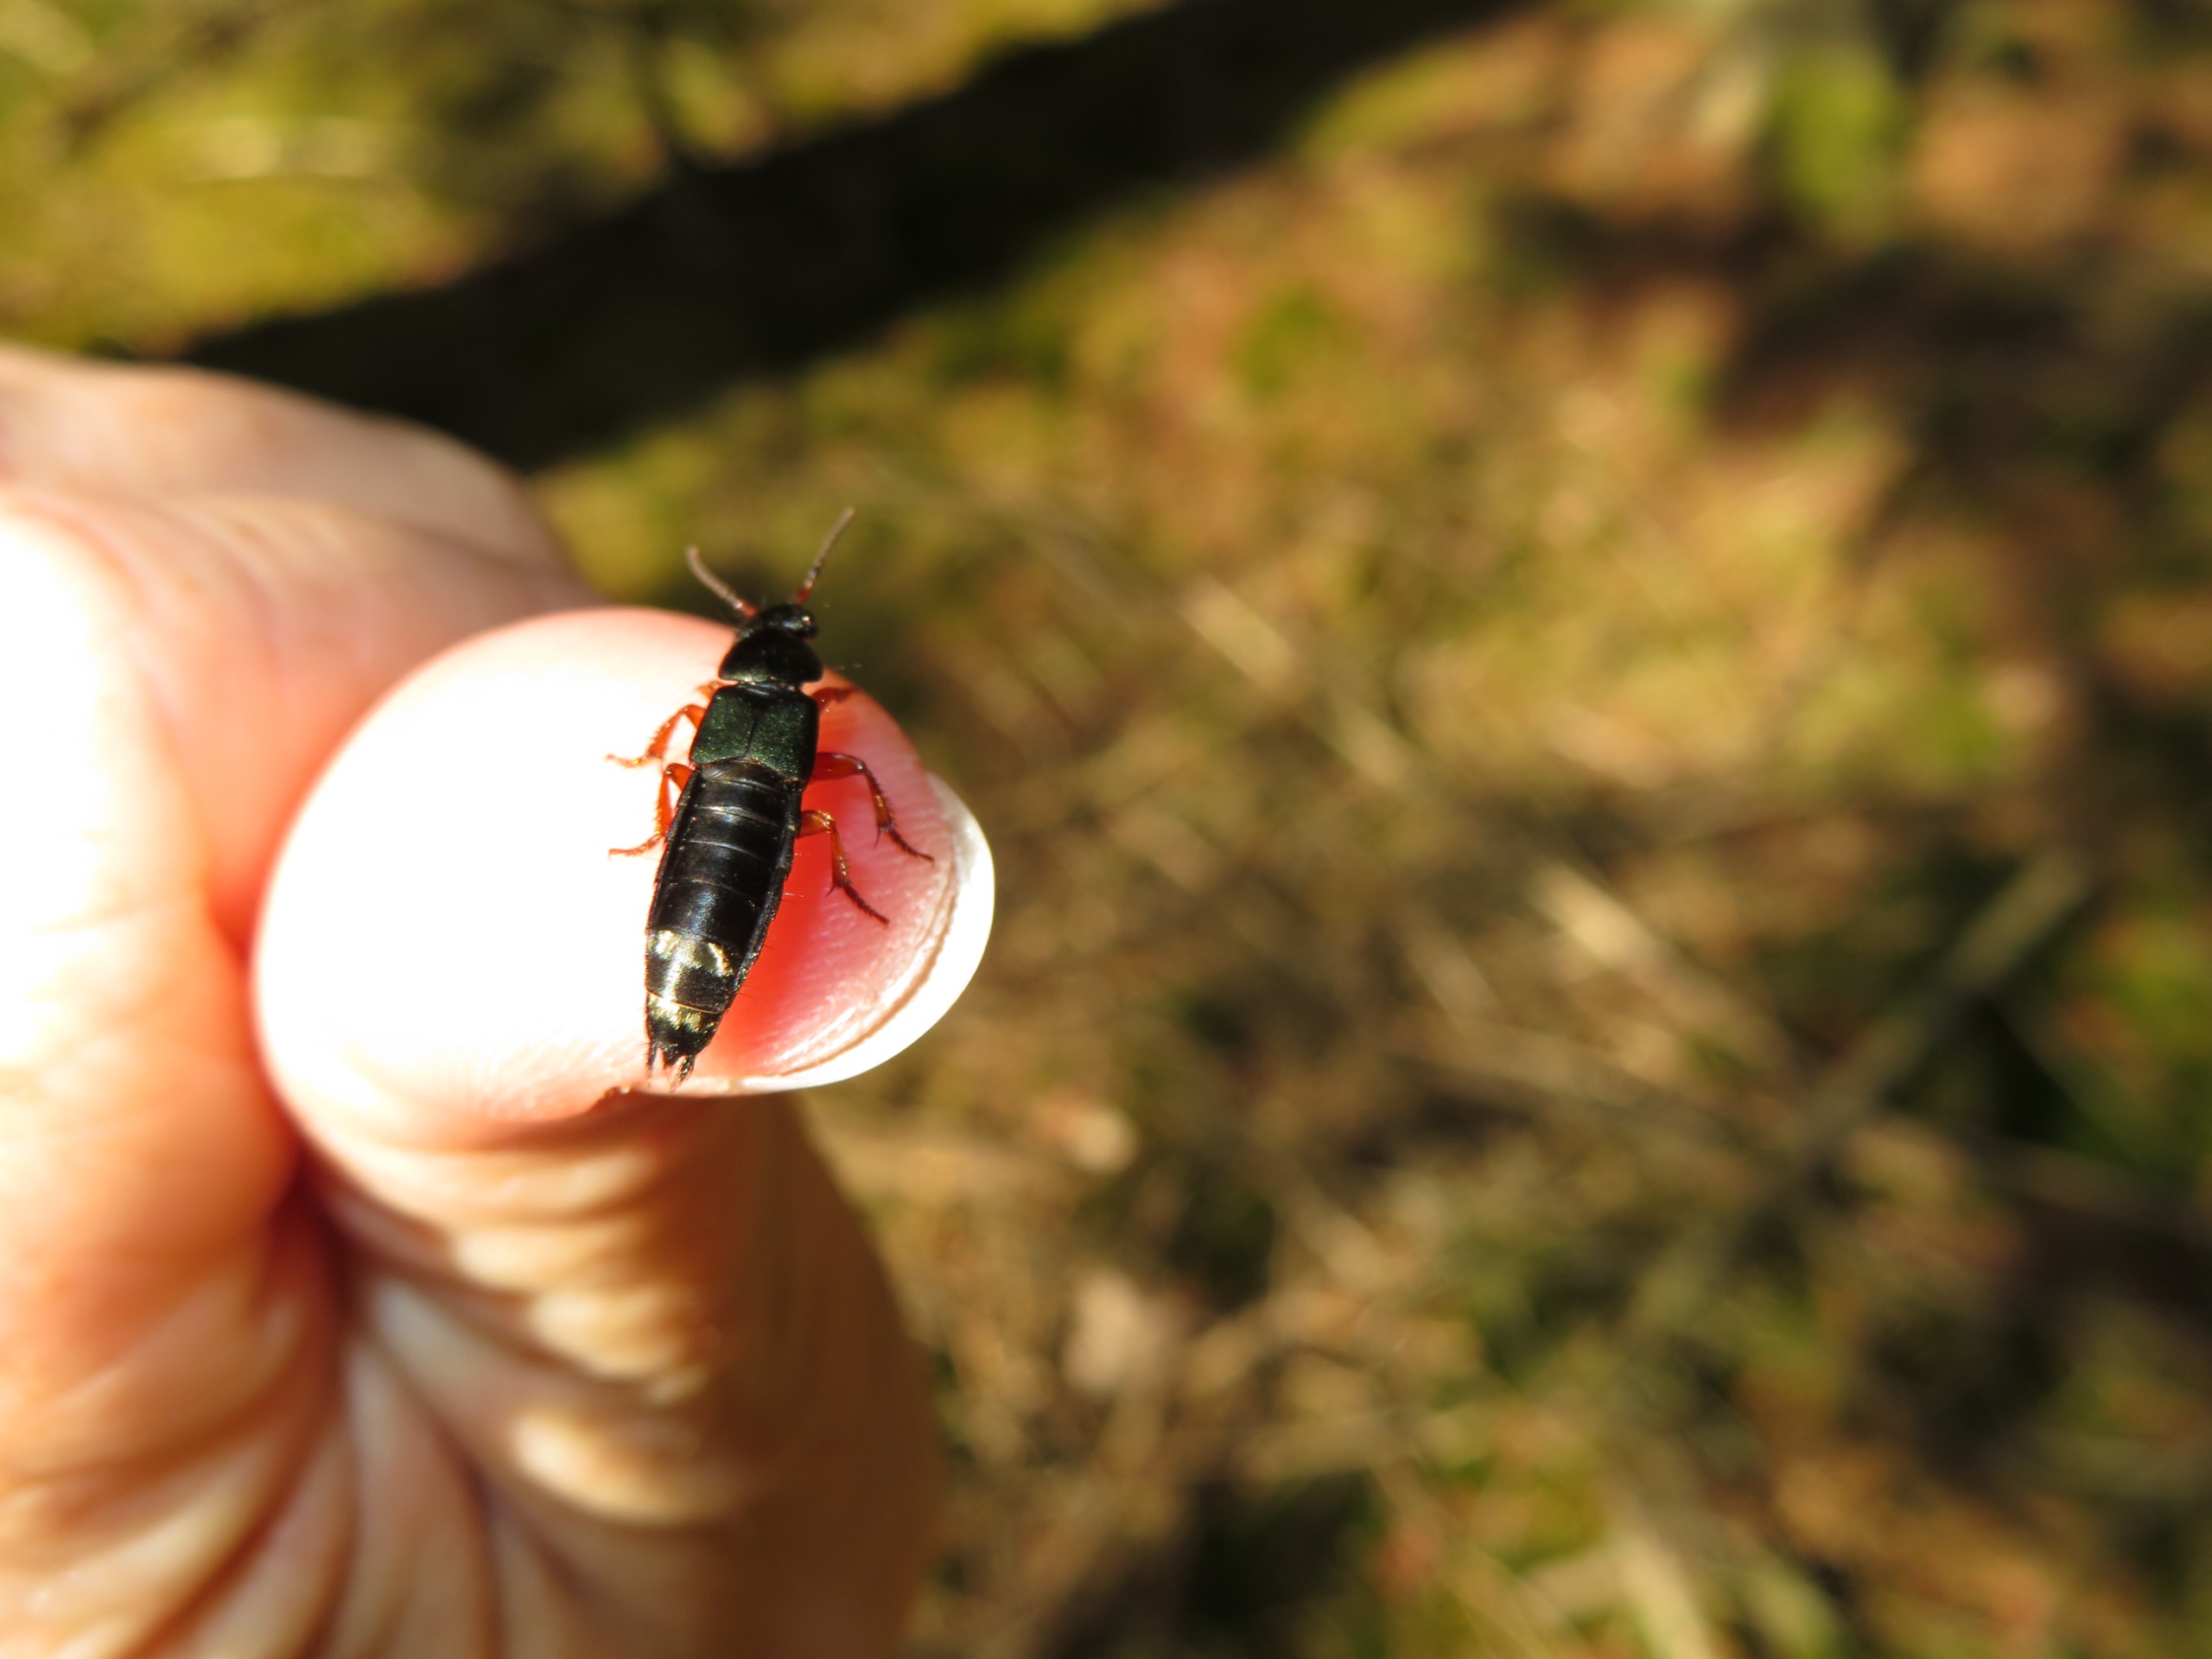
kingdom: Animalia
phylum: Arthropoda
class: Insecta
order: Coleoptera
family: Staphylinidae
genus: Platydracus
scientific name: Platydracus fulvipes
